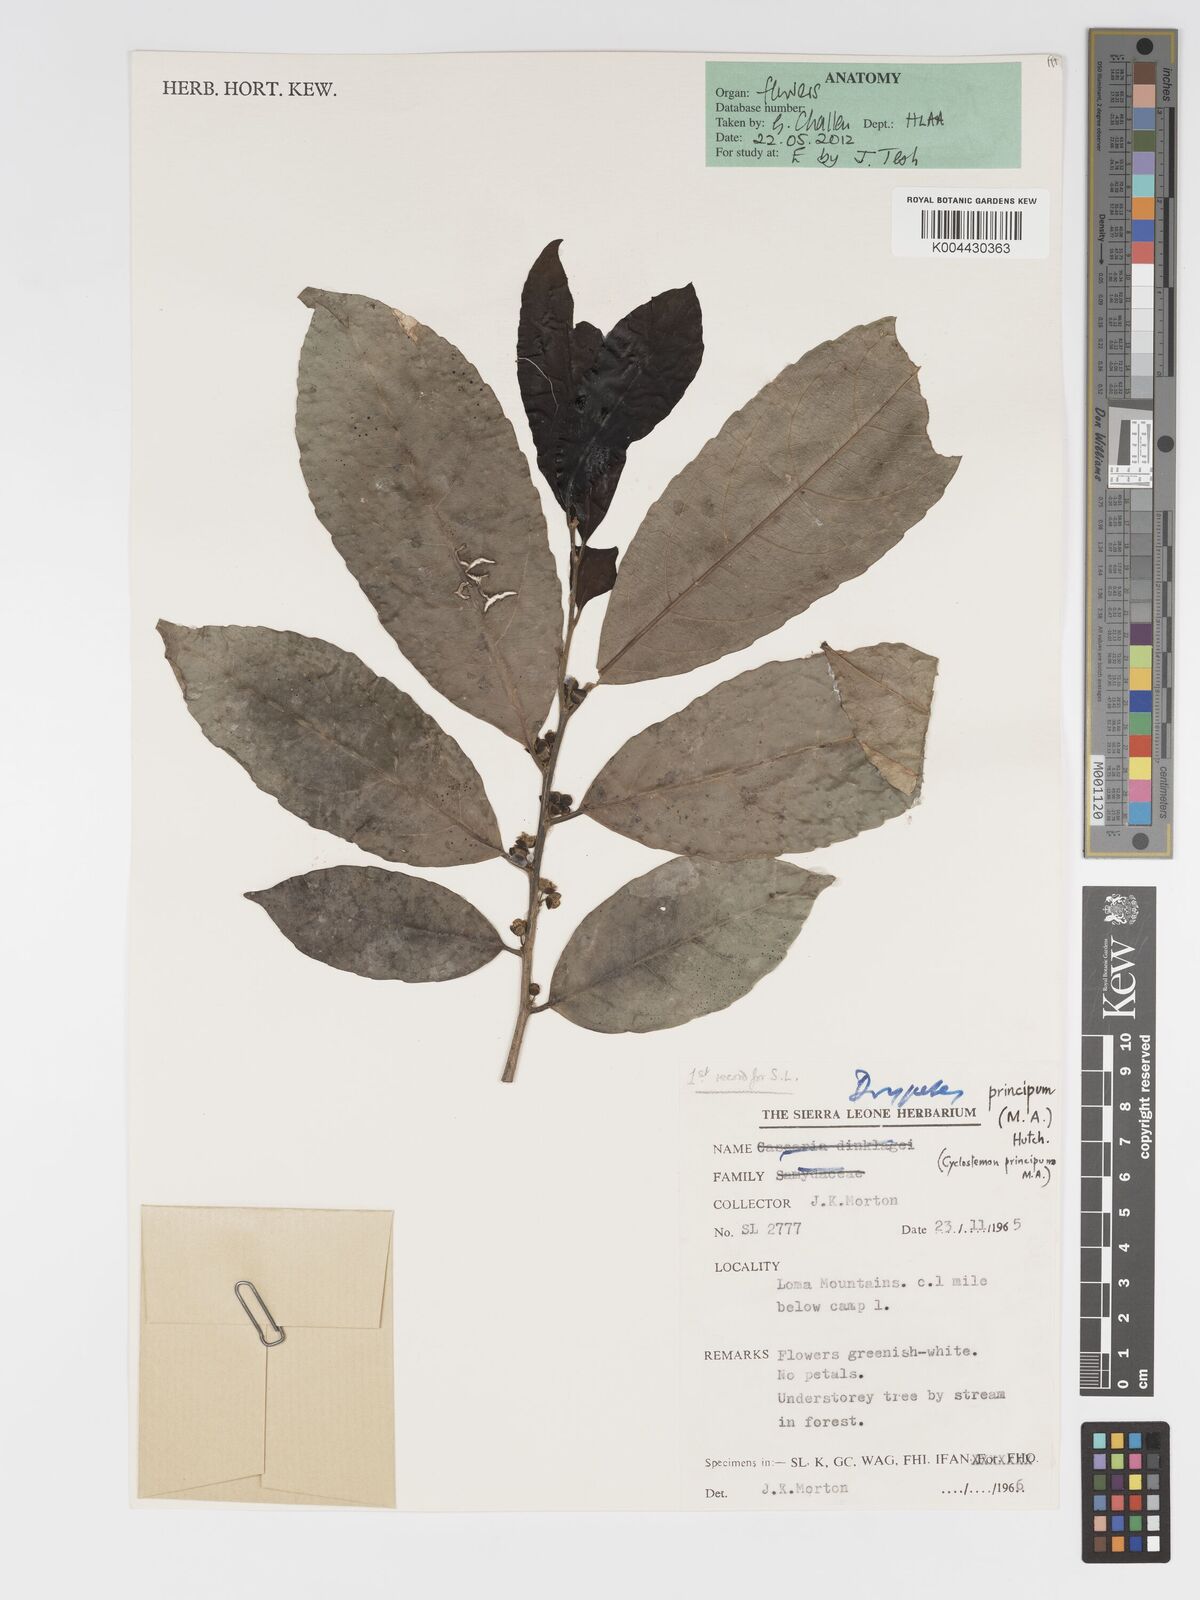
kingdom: Plantae
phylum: Tracheophyta
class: Magnoliopsida
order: Malpighiales
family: Putranjivaceae
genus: Drypetes
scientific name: Drypetes principum
